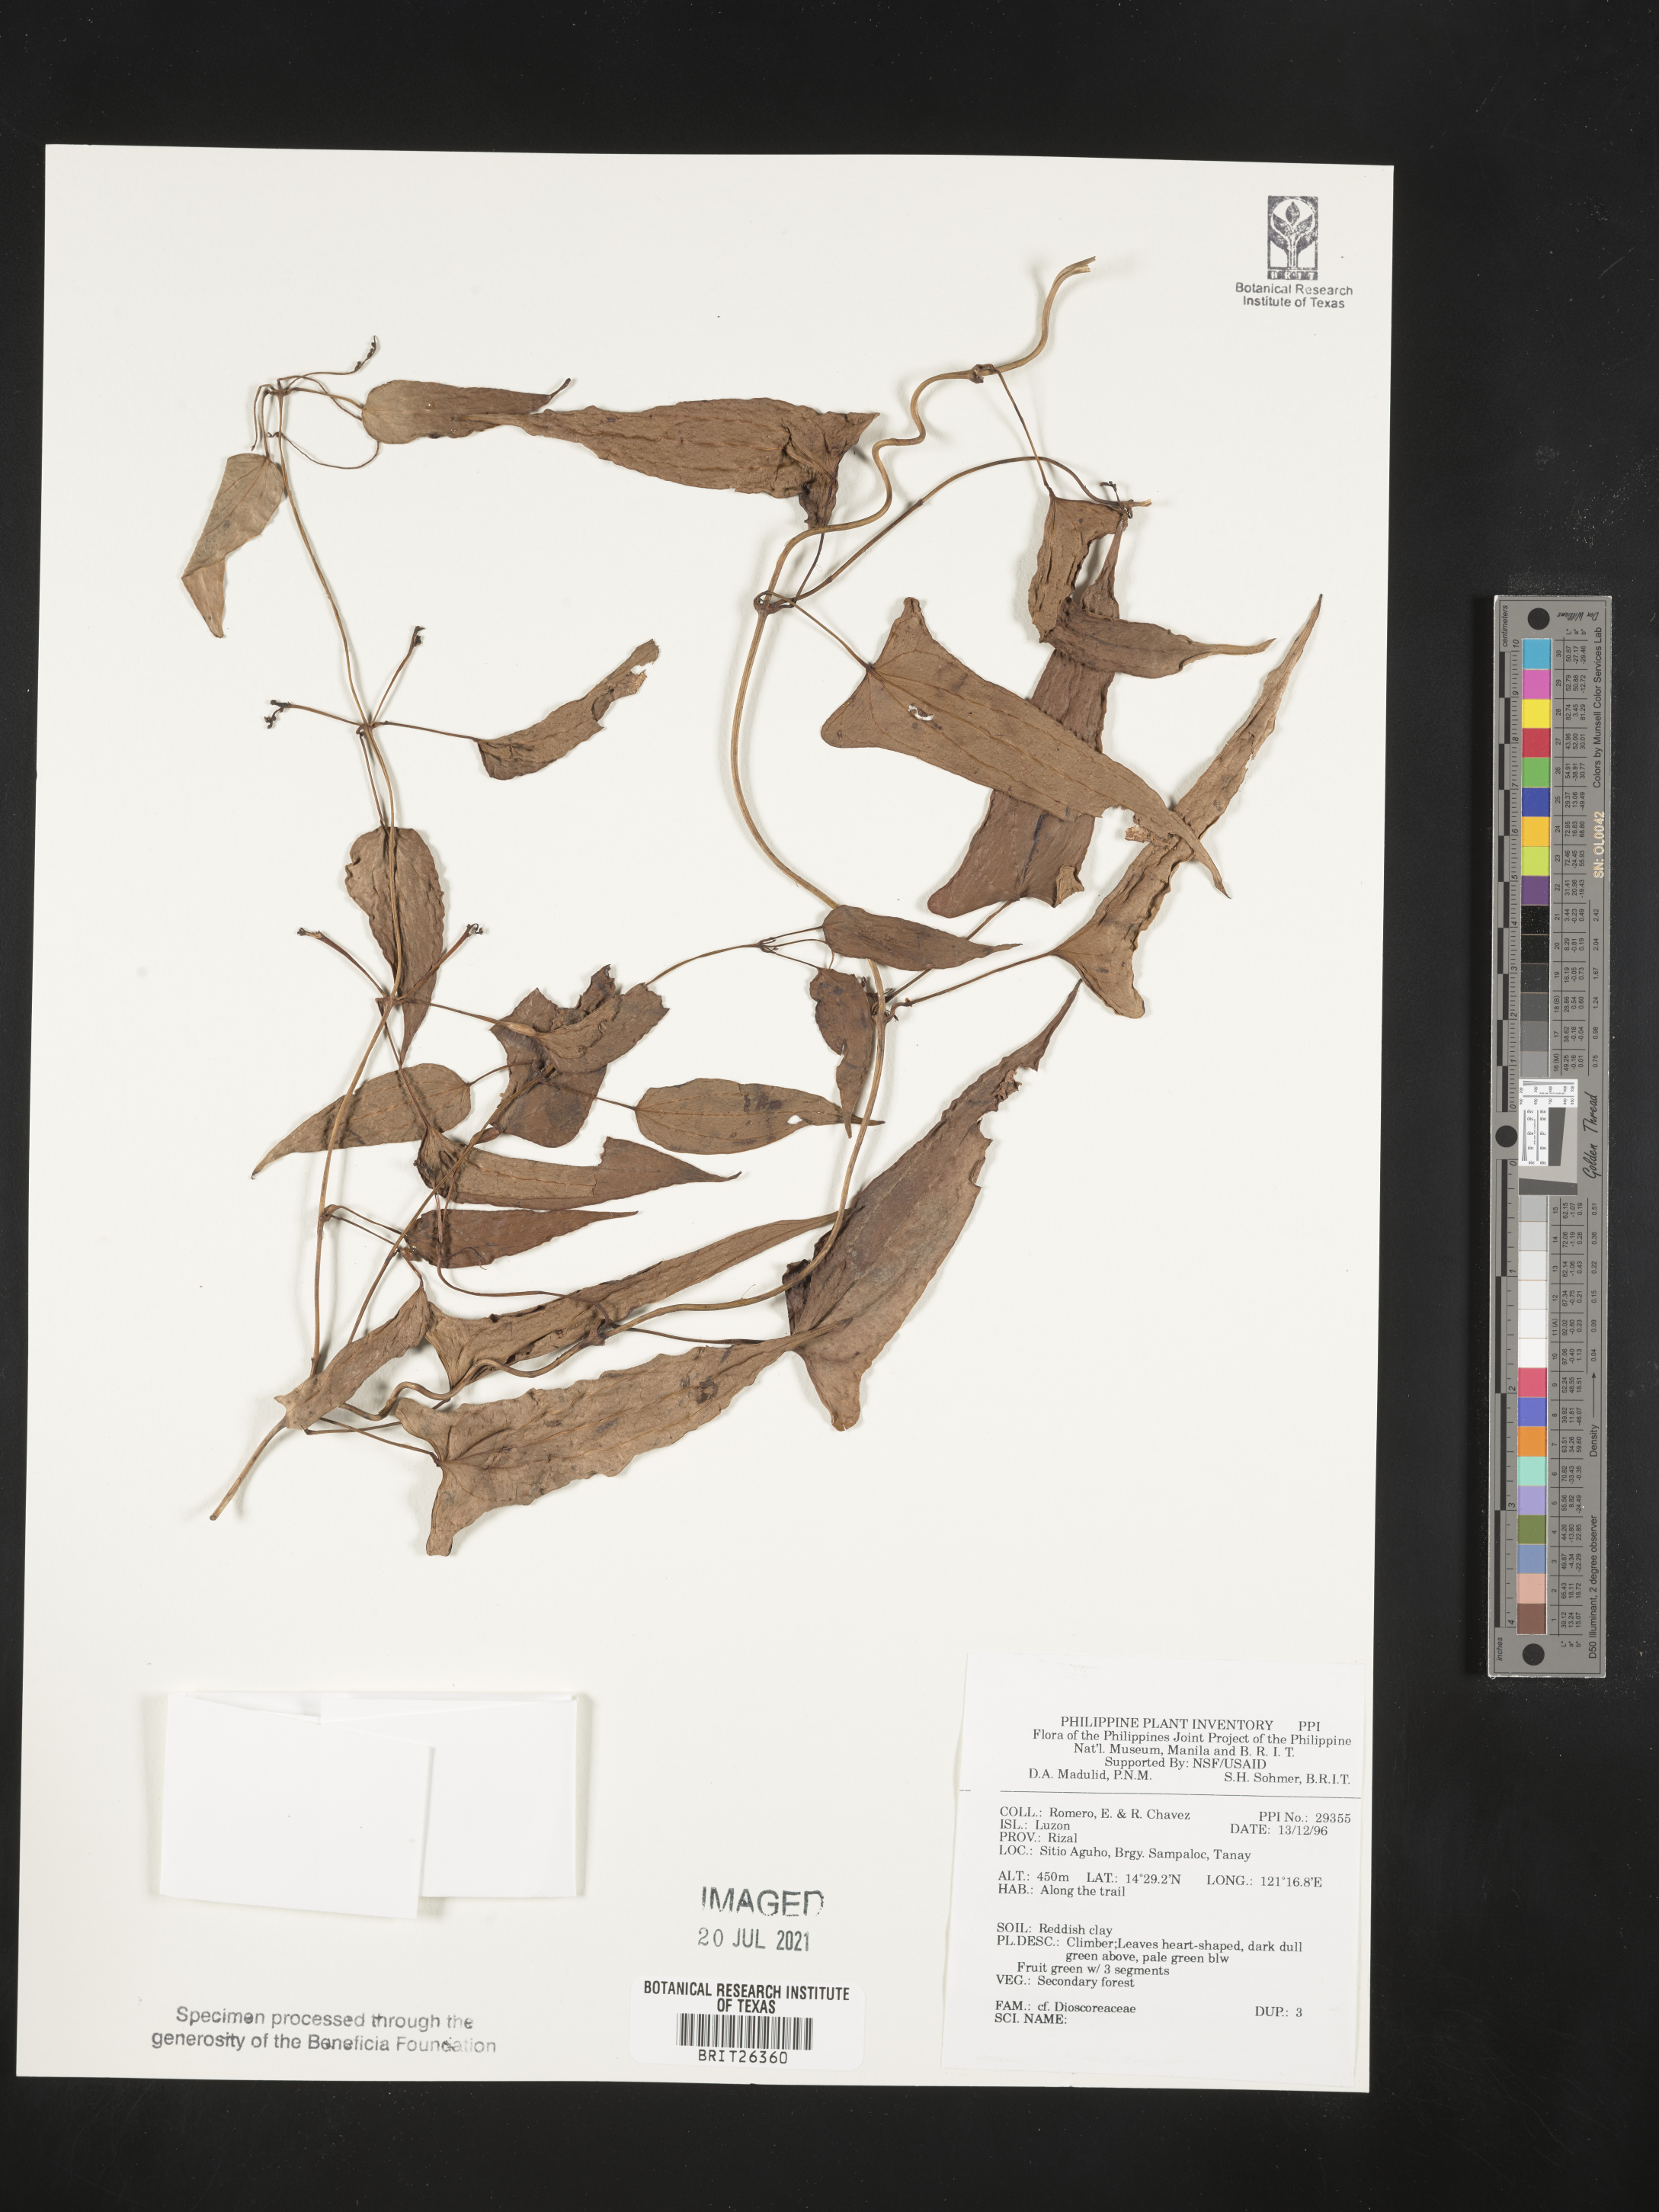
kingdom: Plantae
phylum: Tracheophyta
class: Liliopsida
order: Dioscoreales
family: Dioscoreaceae
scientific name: Dioscoreaceae
